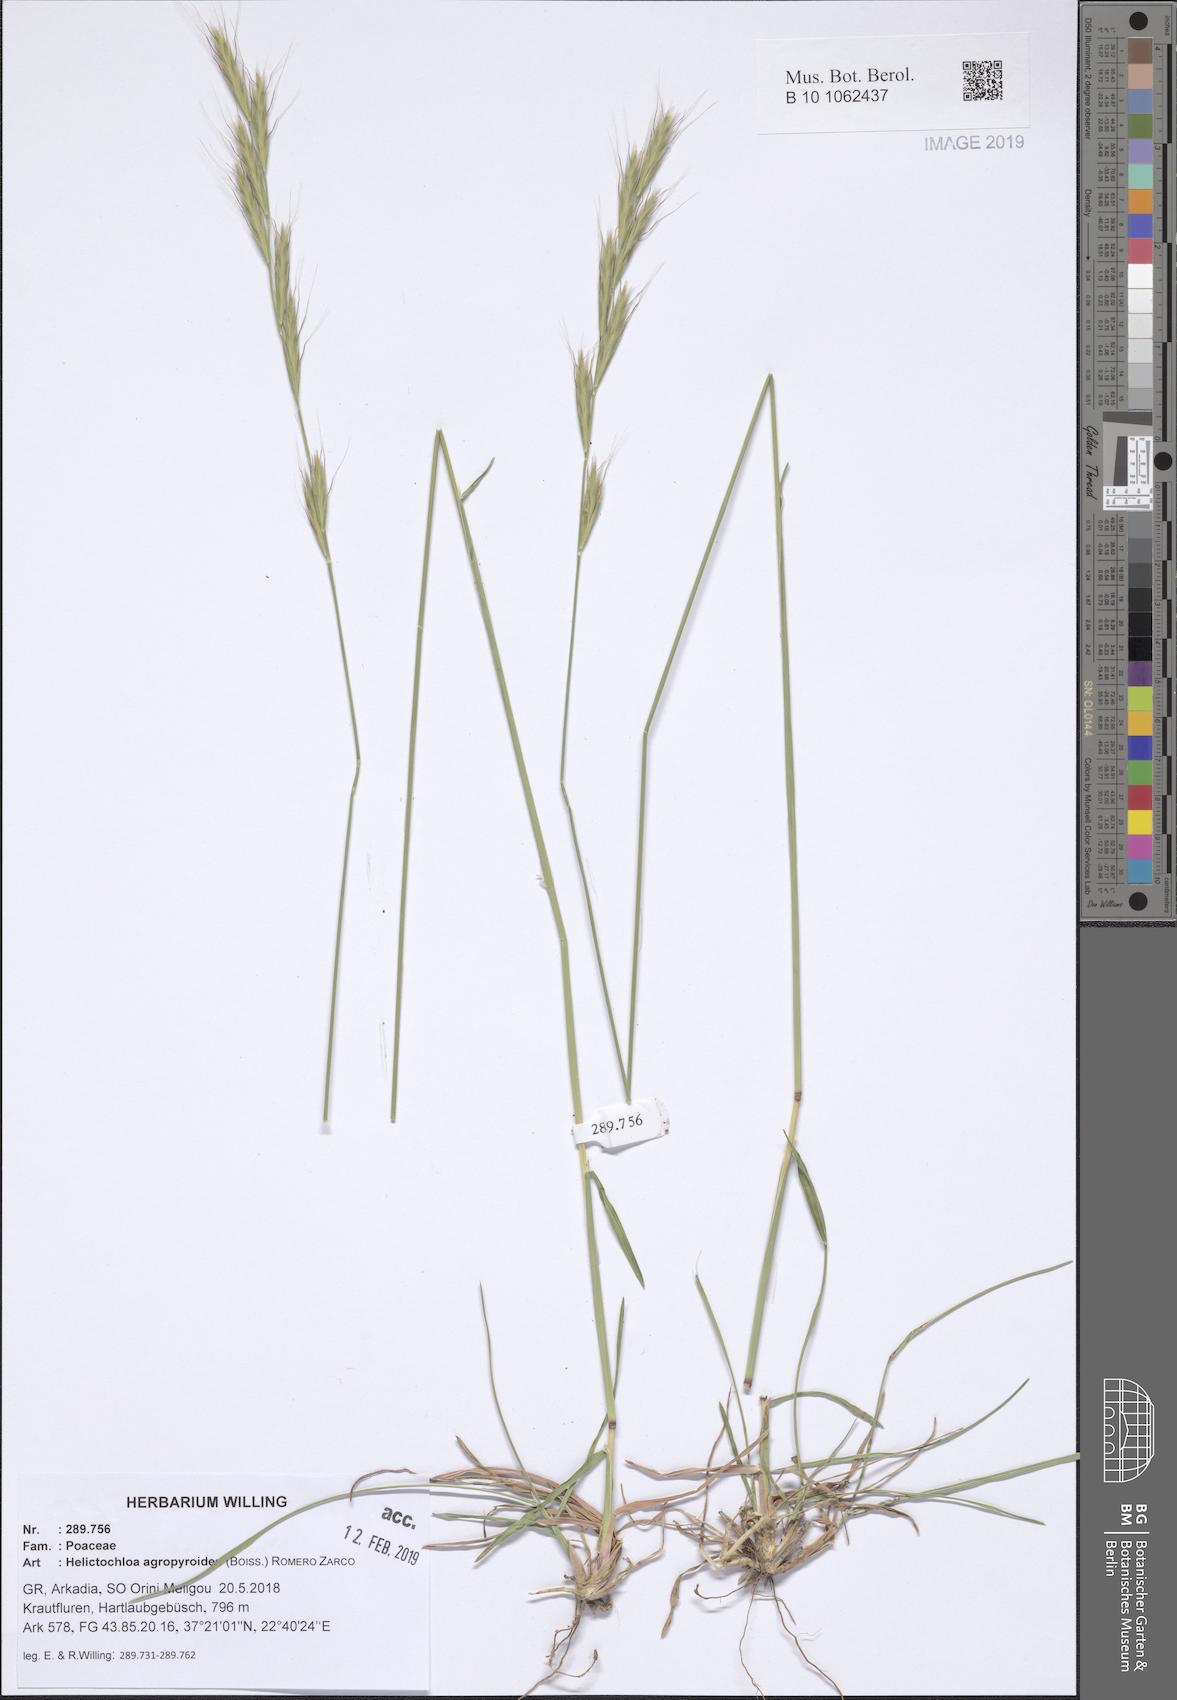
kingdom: Plantae
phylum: Tracheophyta
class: Liliopsida
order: Poales
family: Poaceae
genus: Helictochloa
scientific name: Helictochloa agropyroides
